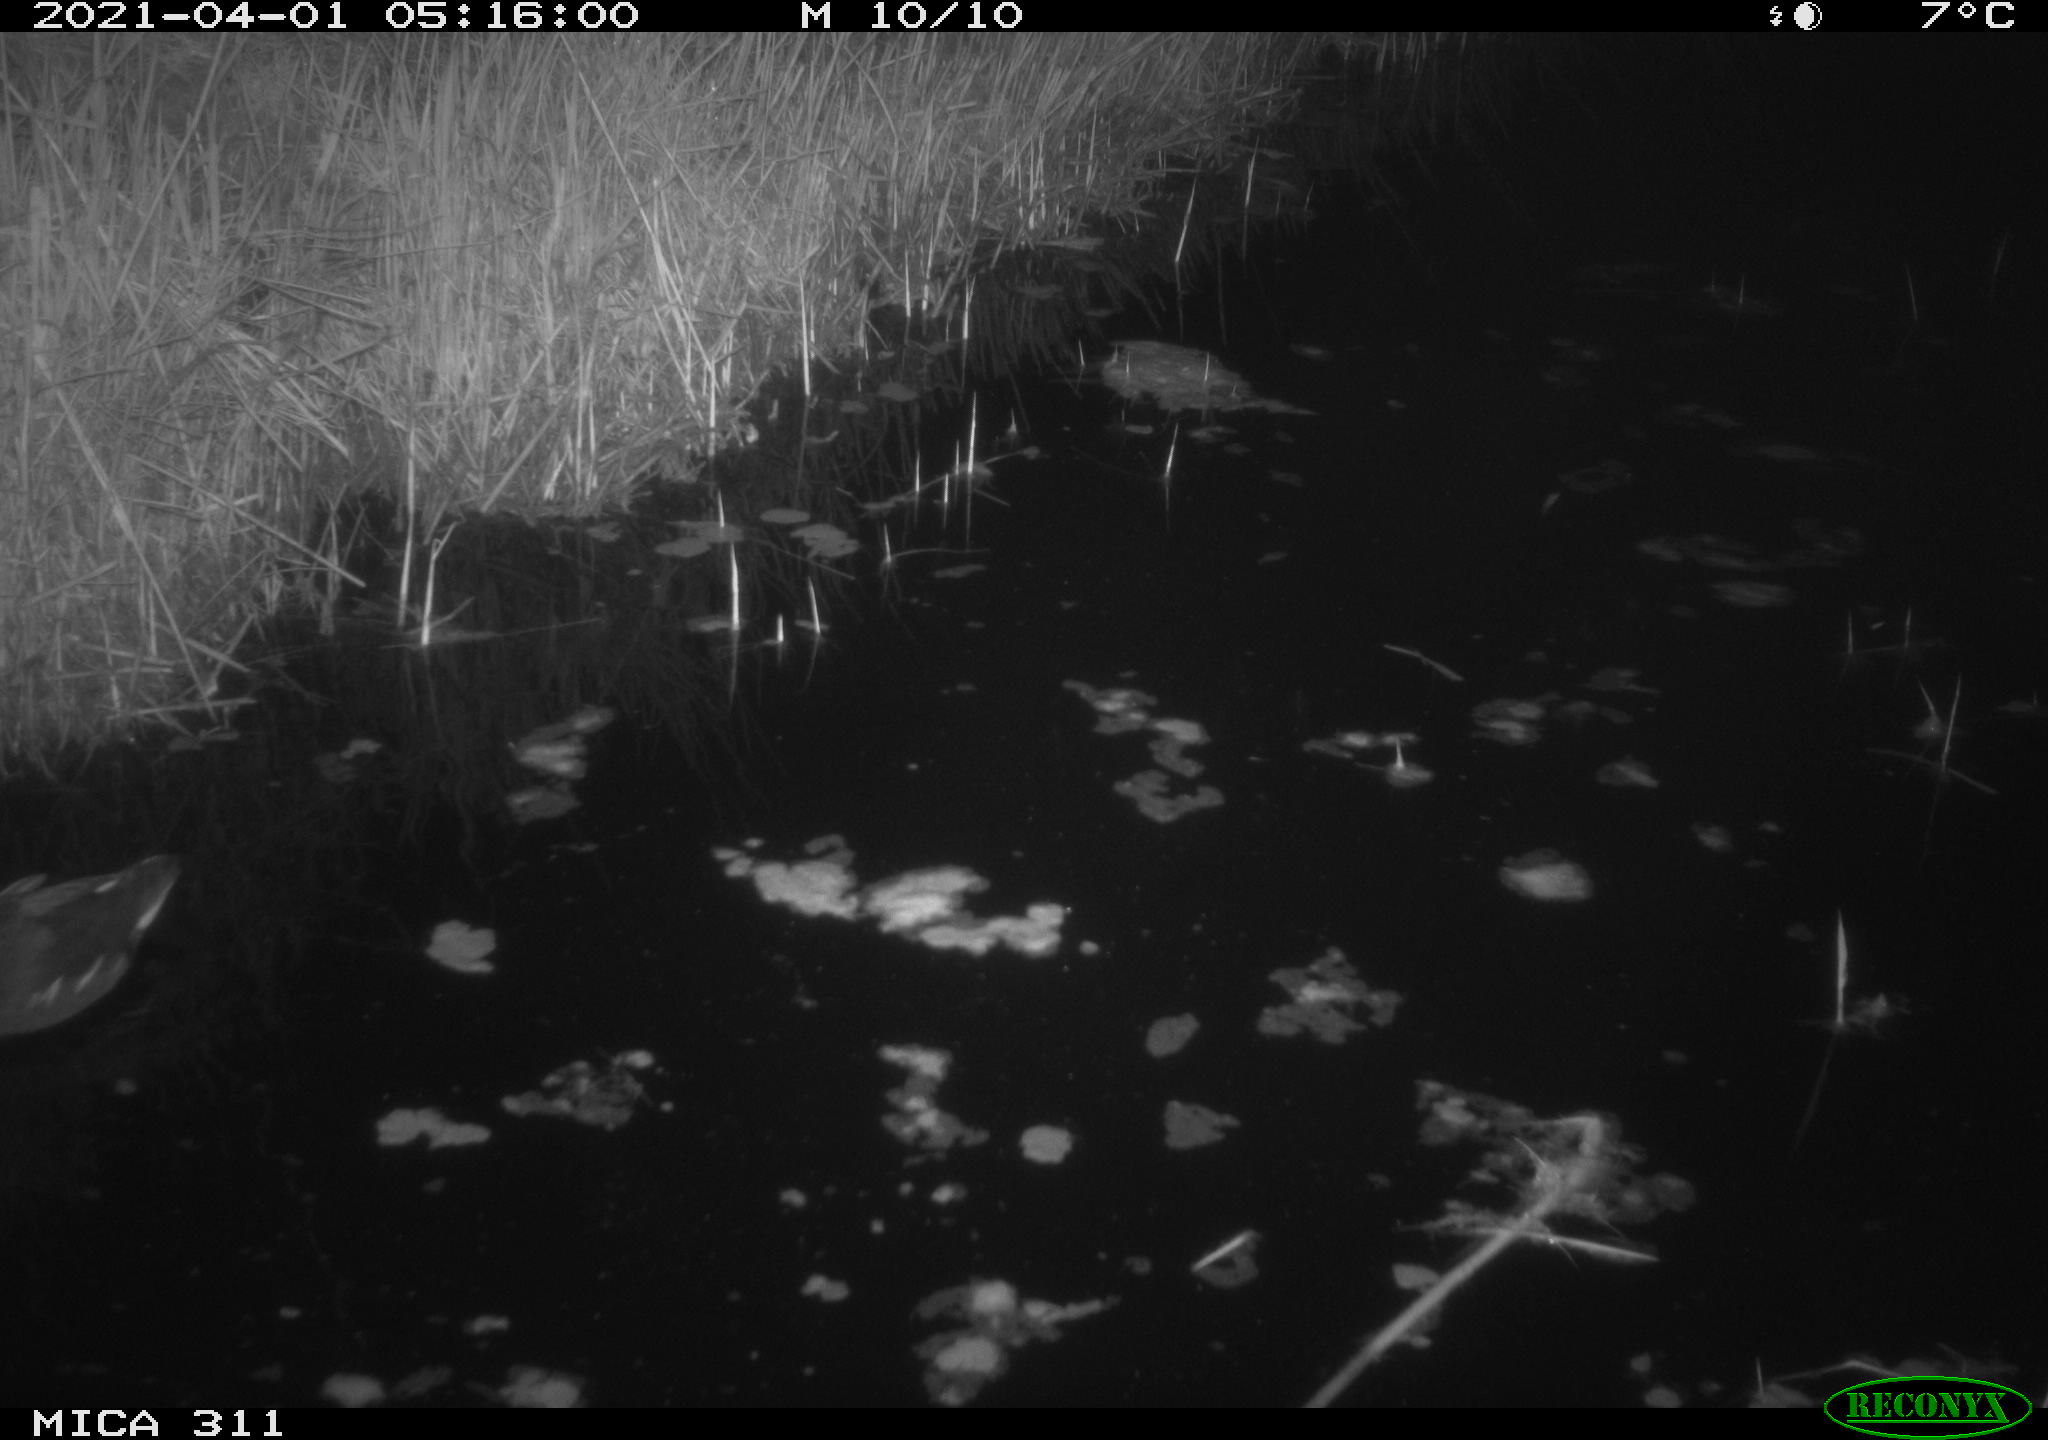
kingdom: Animalia
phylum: Chordata
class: Aves
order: Gruiformes
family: Rallidae
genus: Gallinula
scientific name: Gallinula chloropus
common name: Common moorhen
